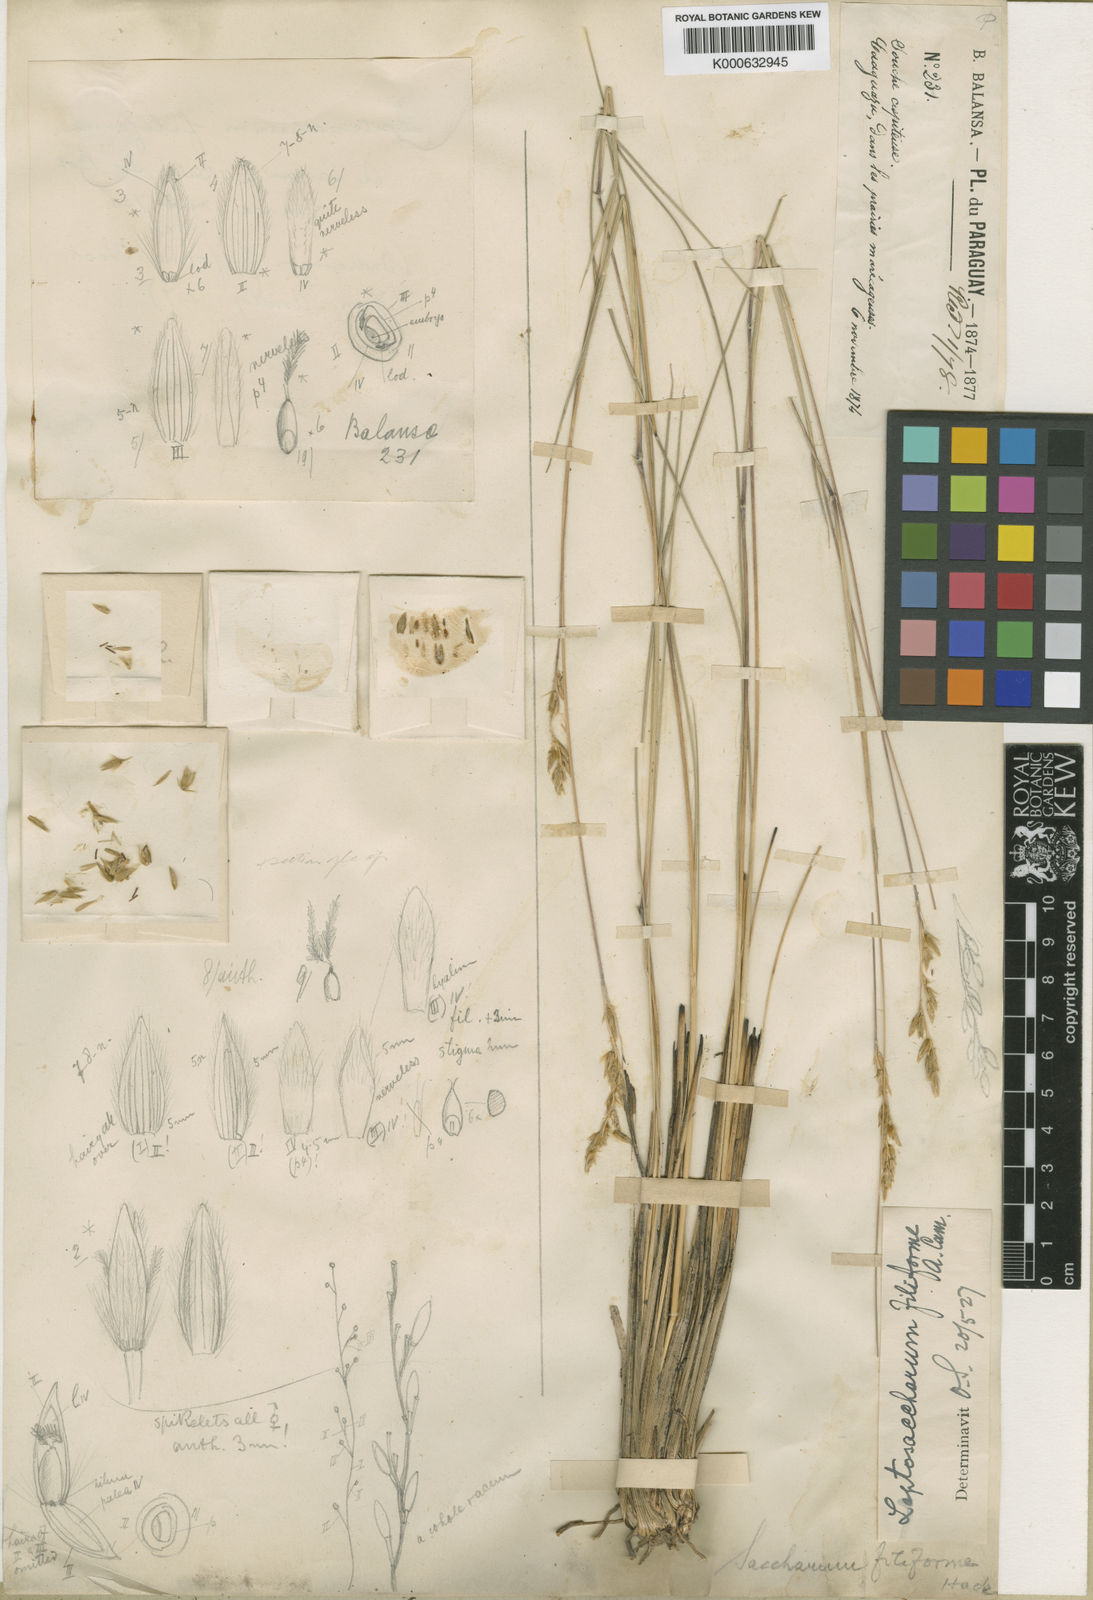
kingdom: Plantae
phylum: Tracheophyta
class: Liliopsida
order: Poales
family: Poaceae
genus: Eriochrysis
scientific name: Eriochrysis filiformis
